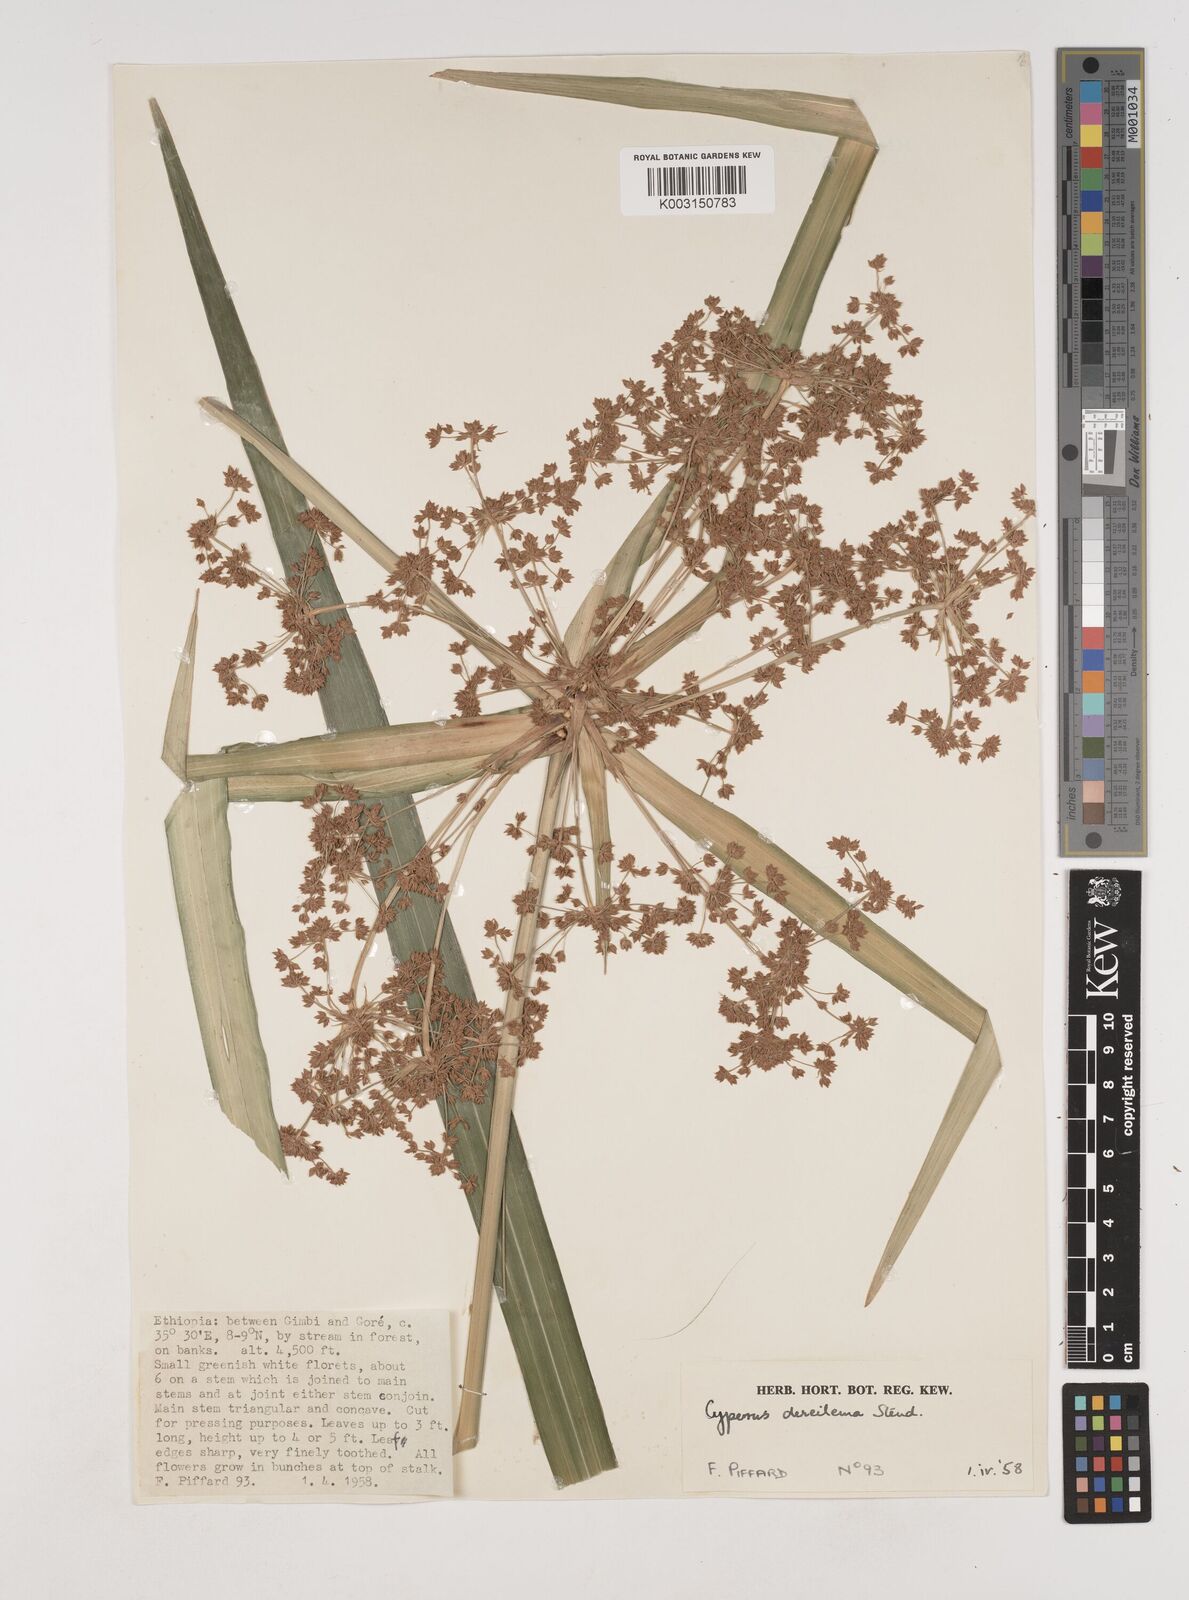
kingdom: Plantae
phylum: Tracheophyta
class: Liliopsida
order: Poales
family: Cyperaceae
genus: Cyperus
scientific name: Cyperus derreilema
